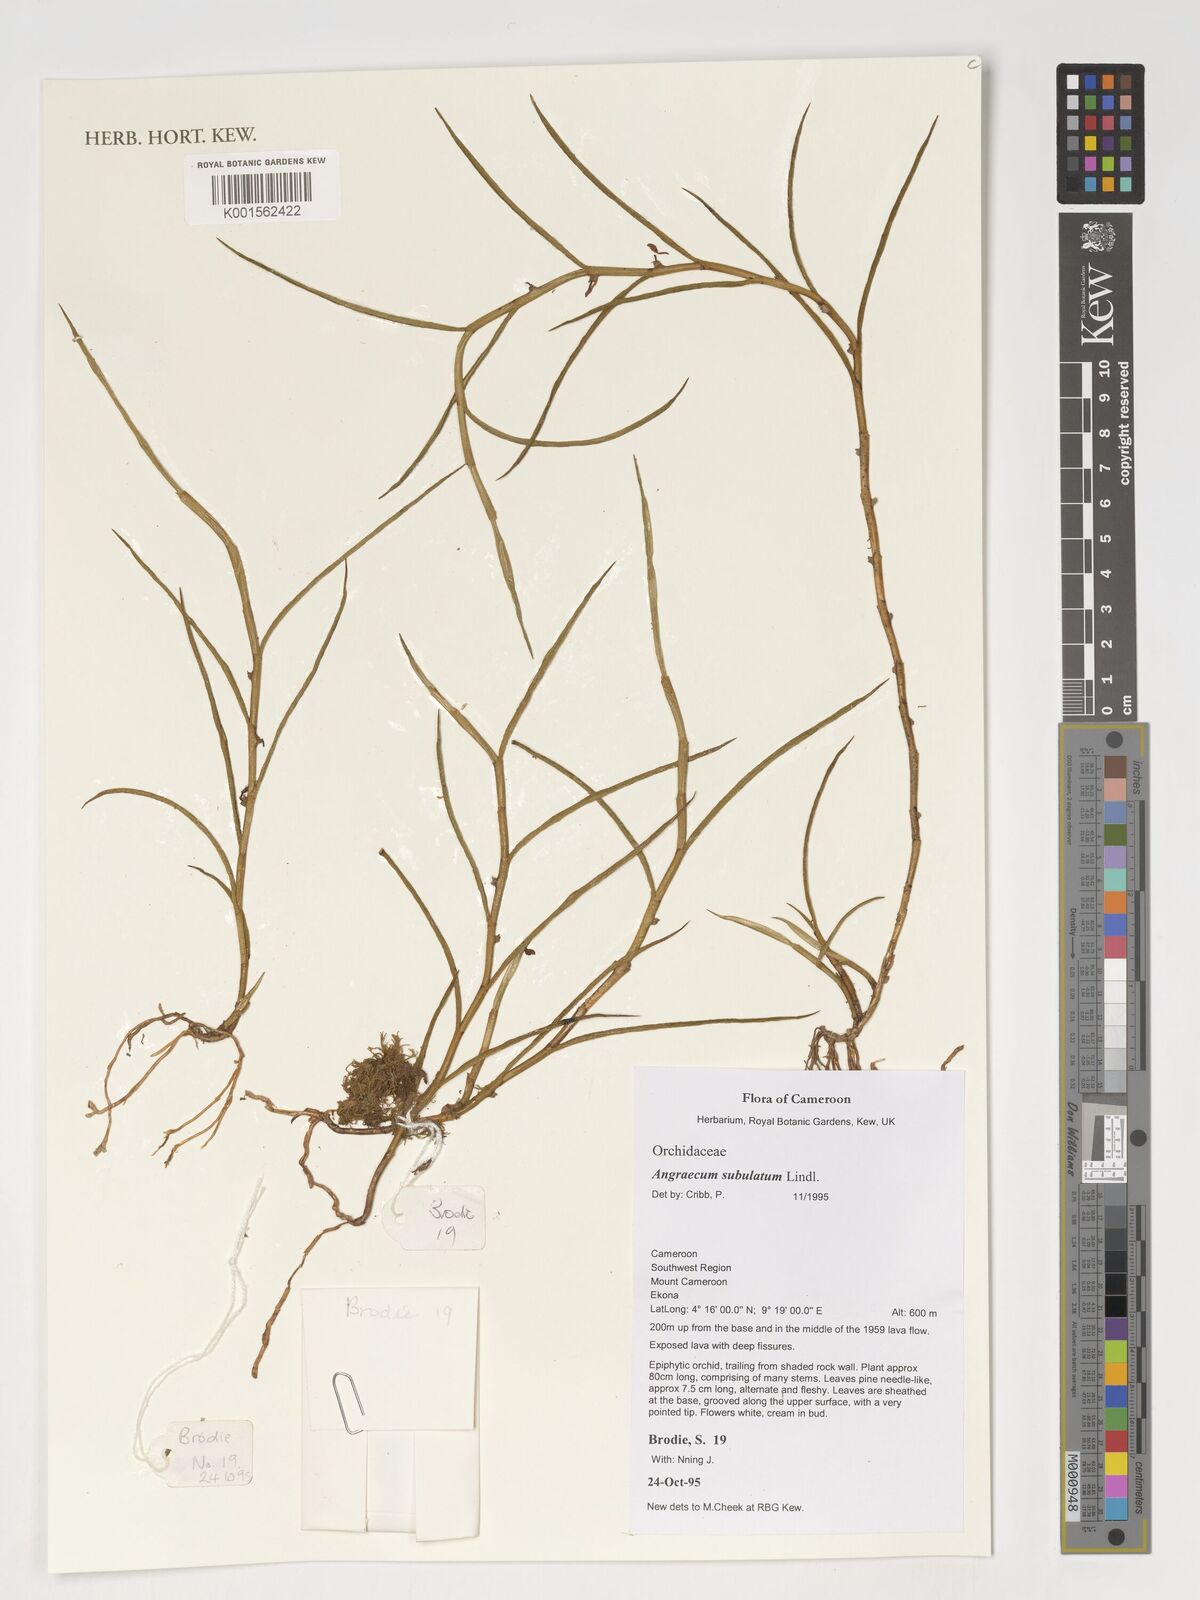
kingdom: Plantae
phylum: Tracheophyta
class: Liliopsida
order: Asparagales
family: Orchidaceae
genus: Afropectinariella
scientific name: Afropectinariella subulata
